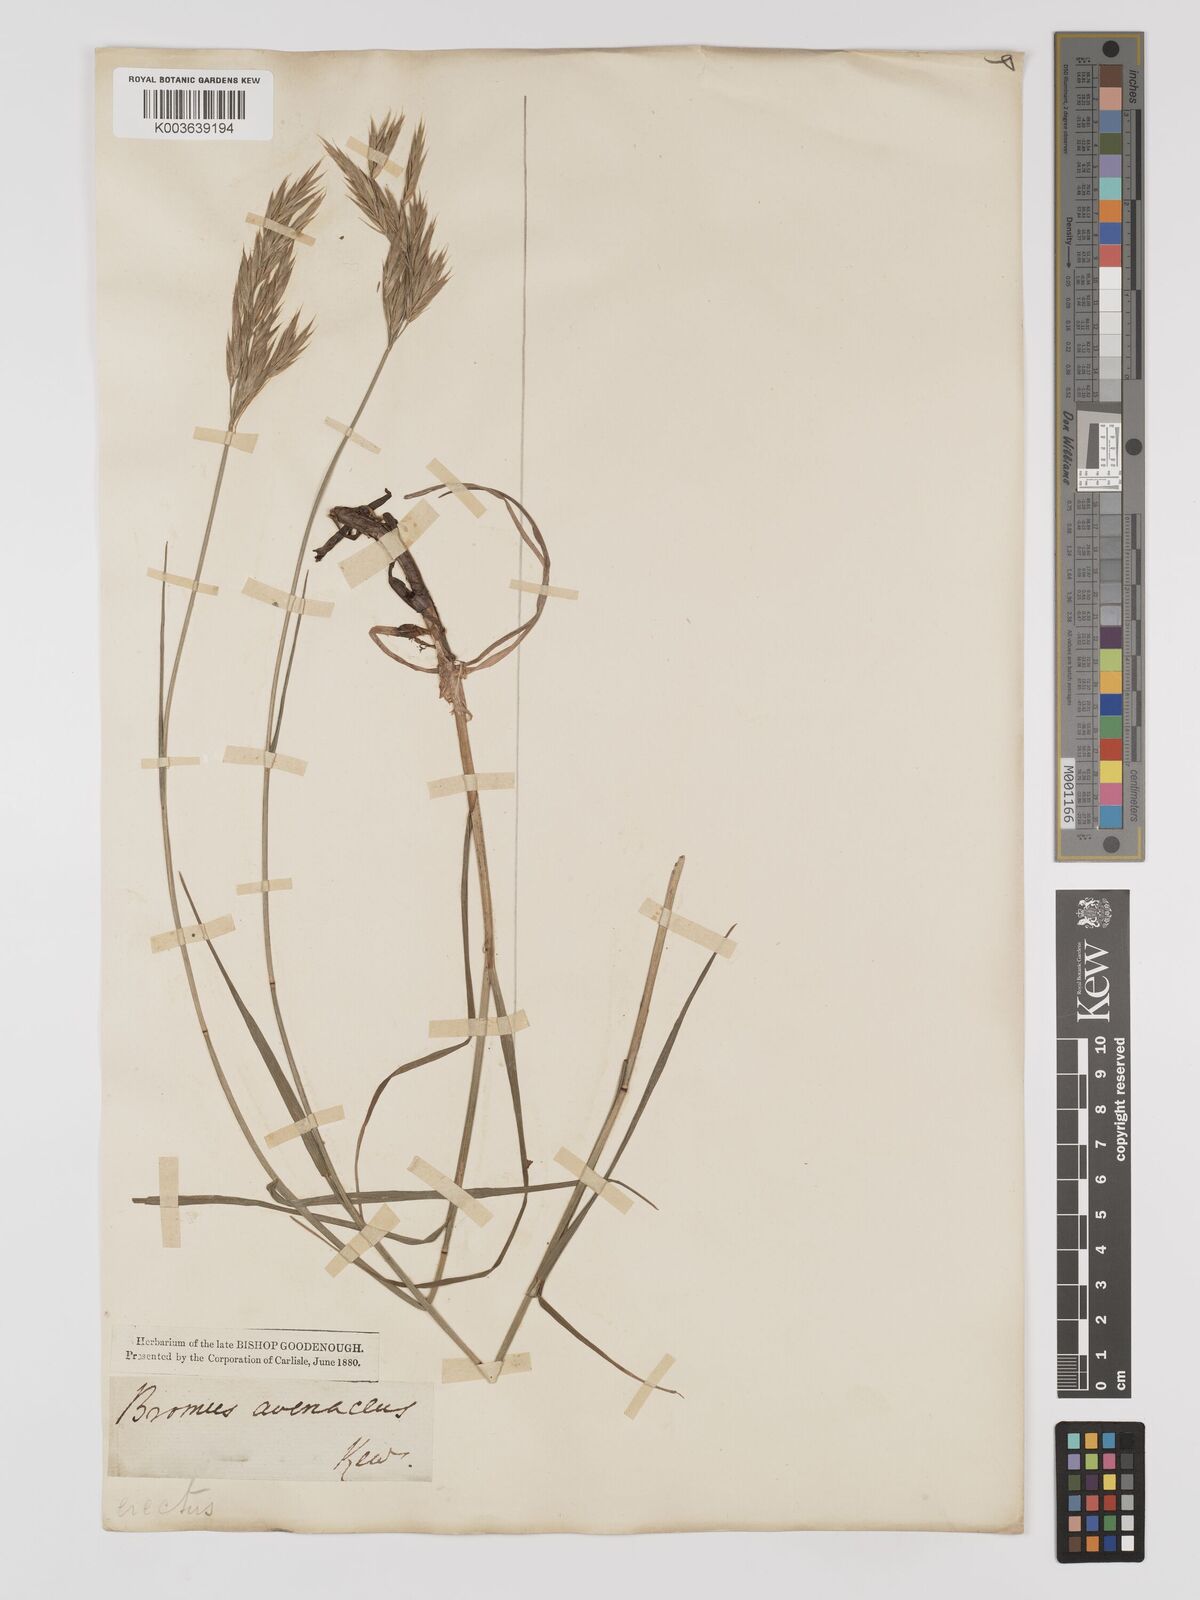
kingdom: Plantae
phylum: Tracheophyta
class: Liliopsida
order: Poales
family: Poaceae
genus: Bromus
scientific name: Bromus erectus
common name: Erect brome
